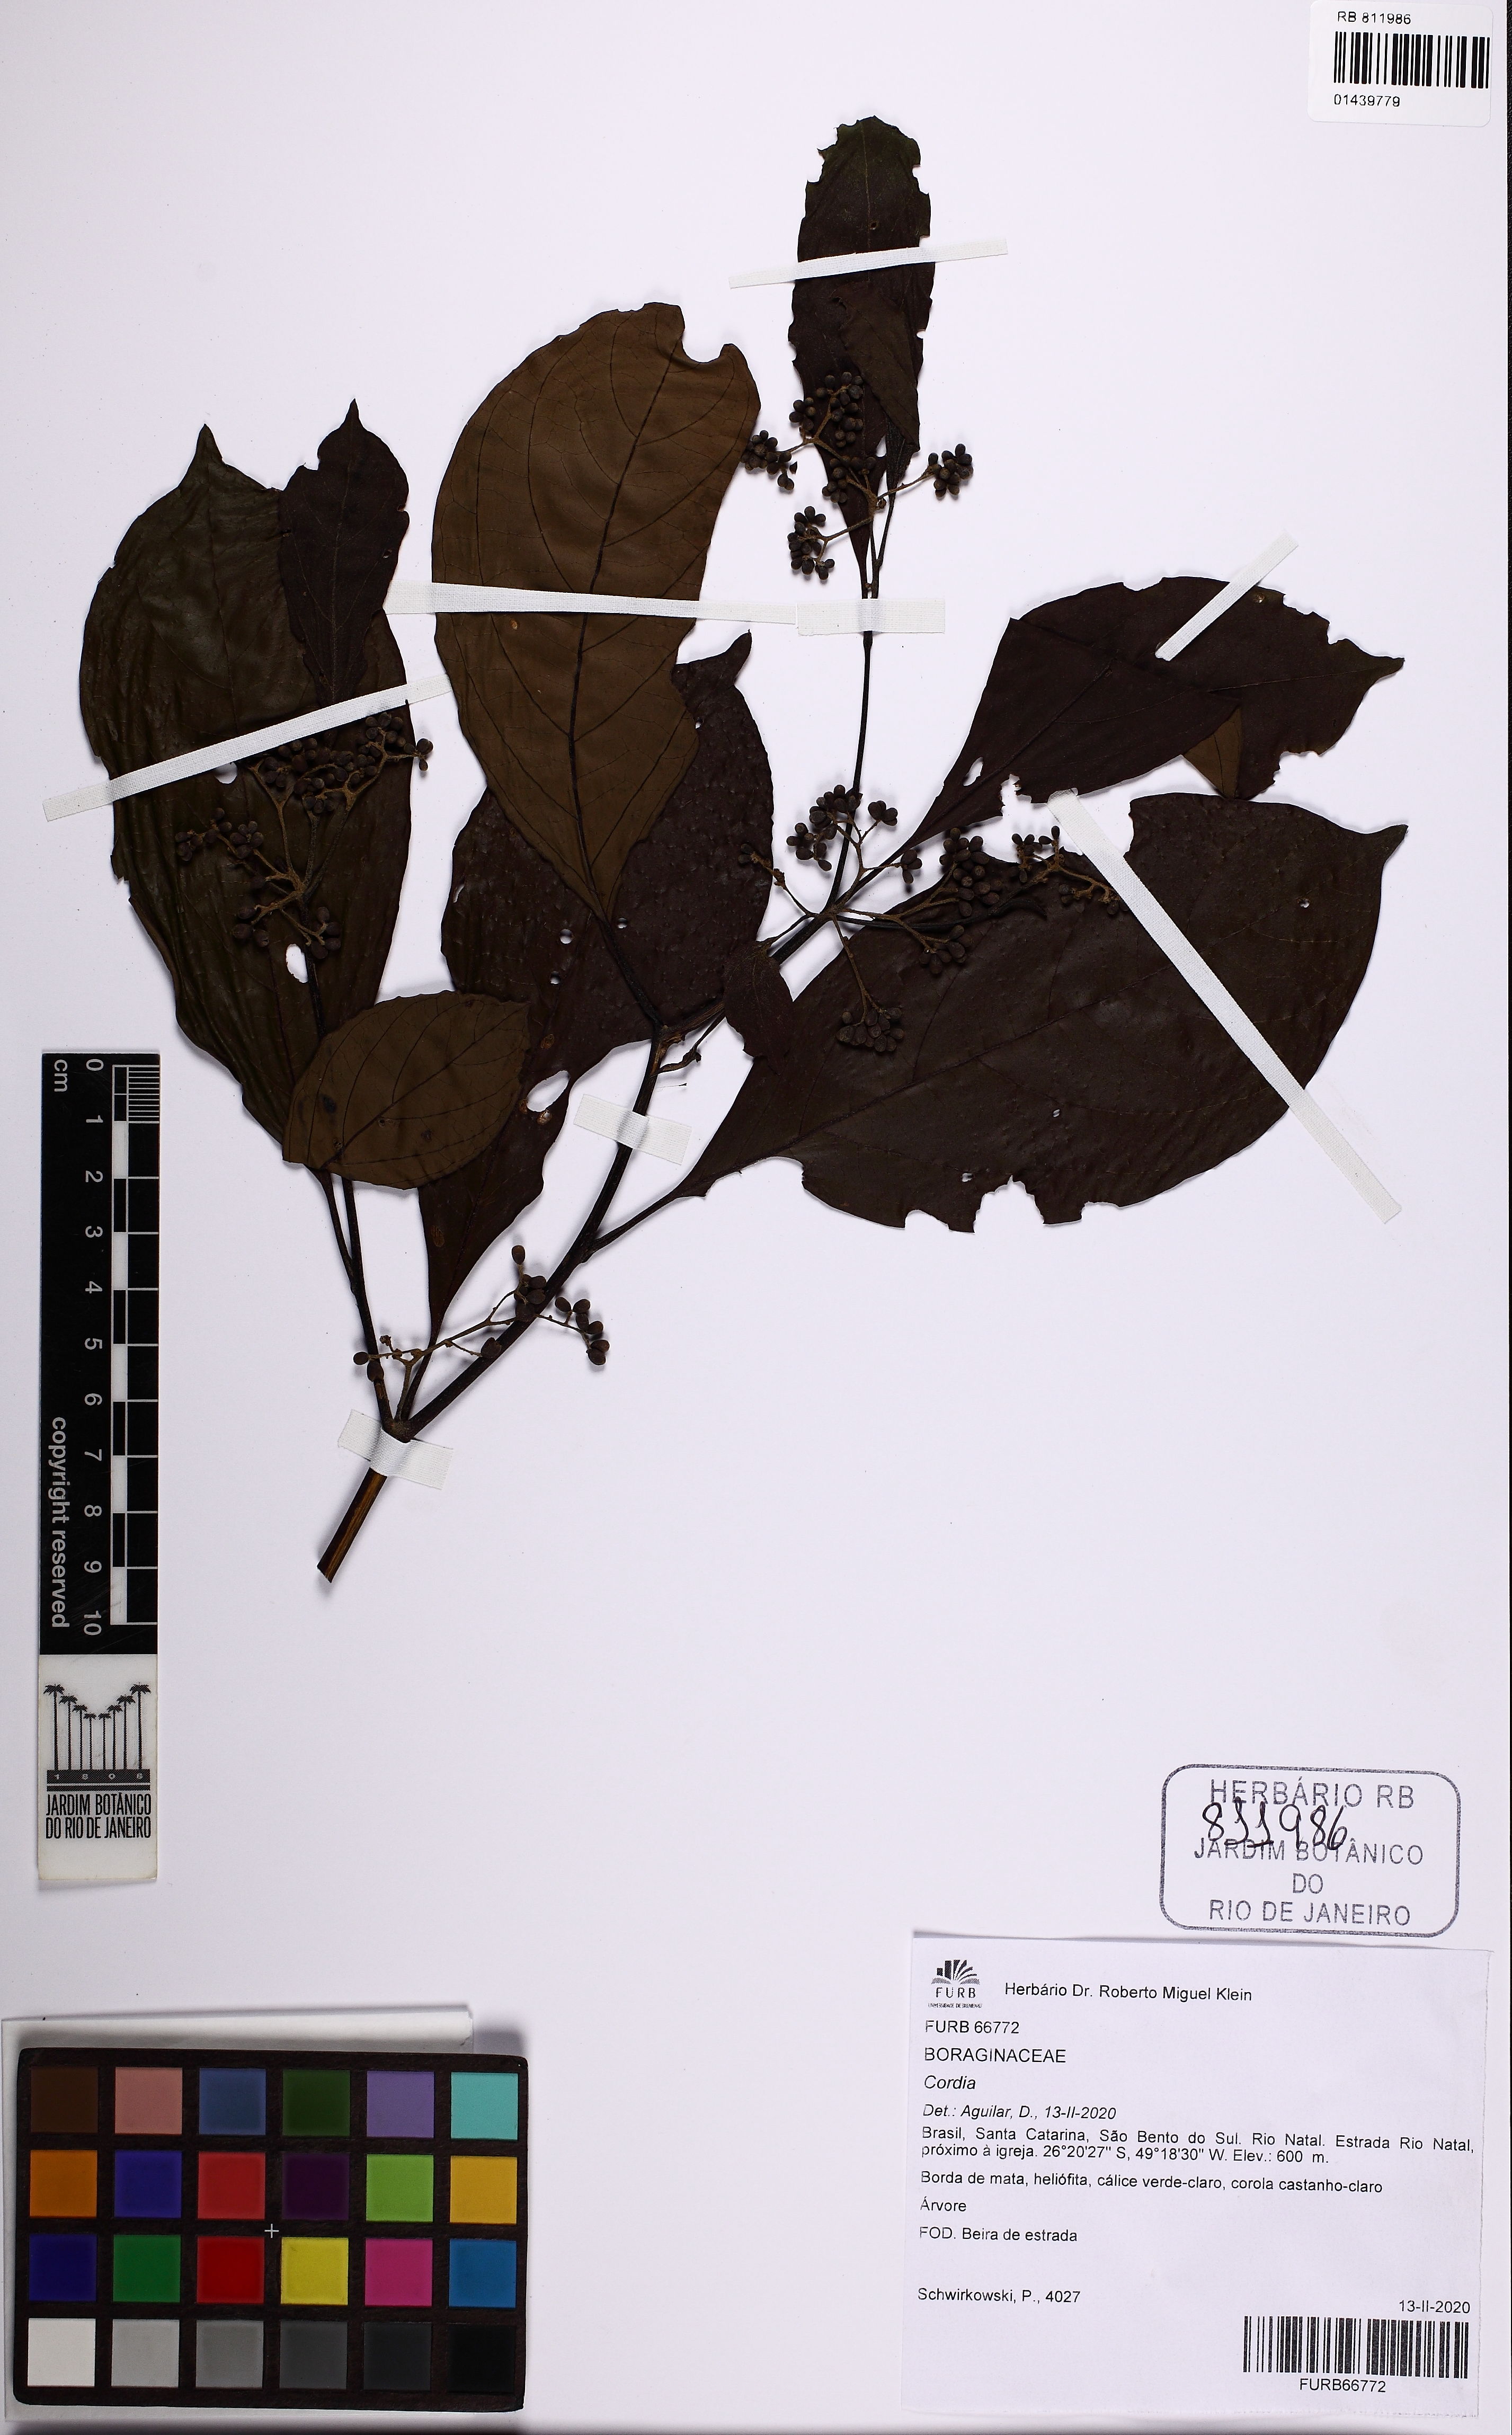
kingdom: Plantae
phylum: Tracheophyta
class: Magnoliopsida
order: Boraginales
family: Cordiaceae
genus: Cordia
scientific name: Cordia
